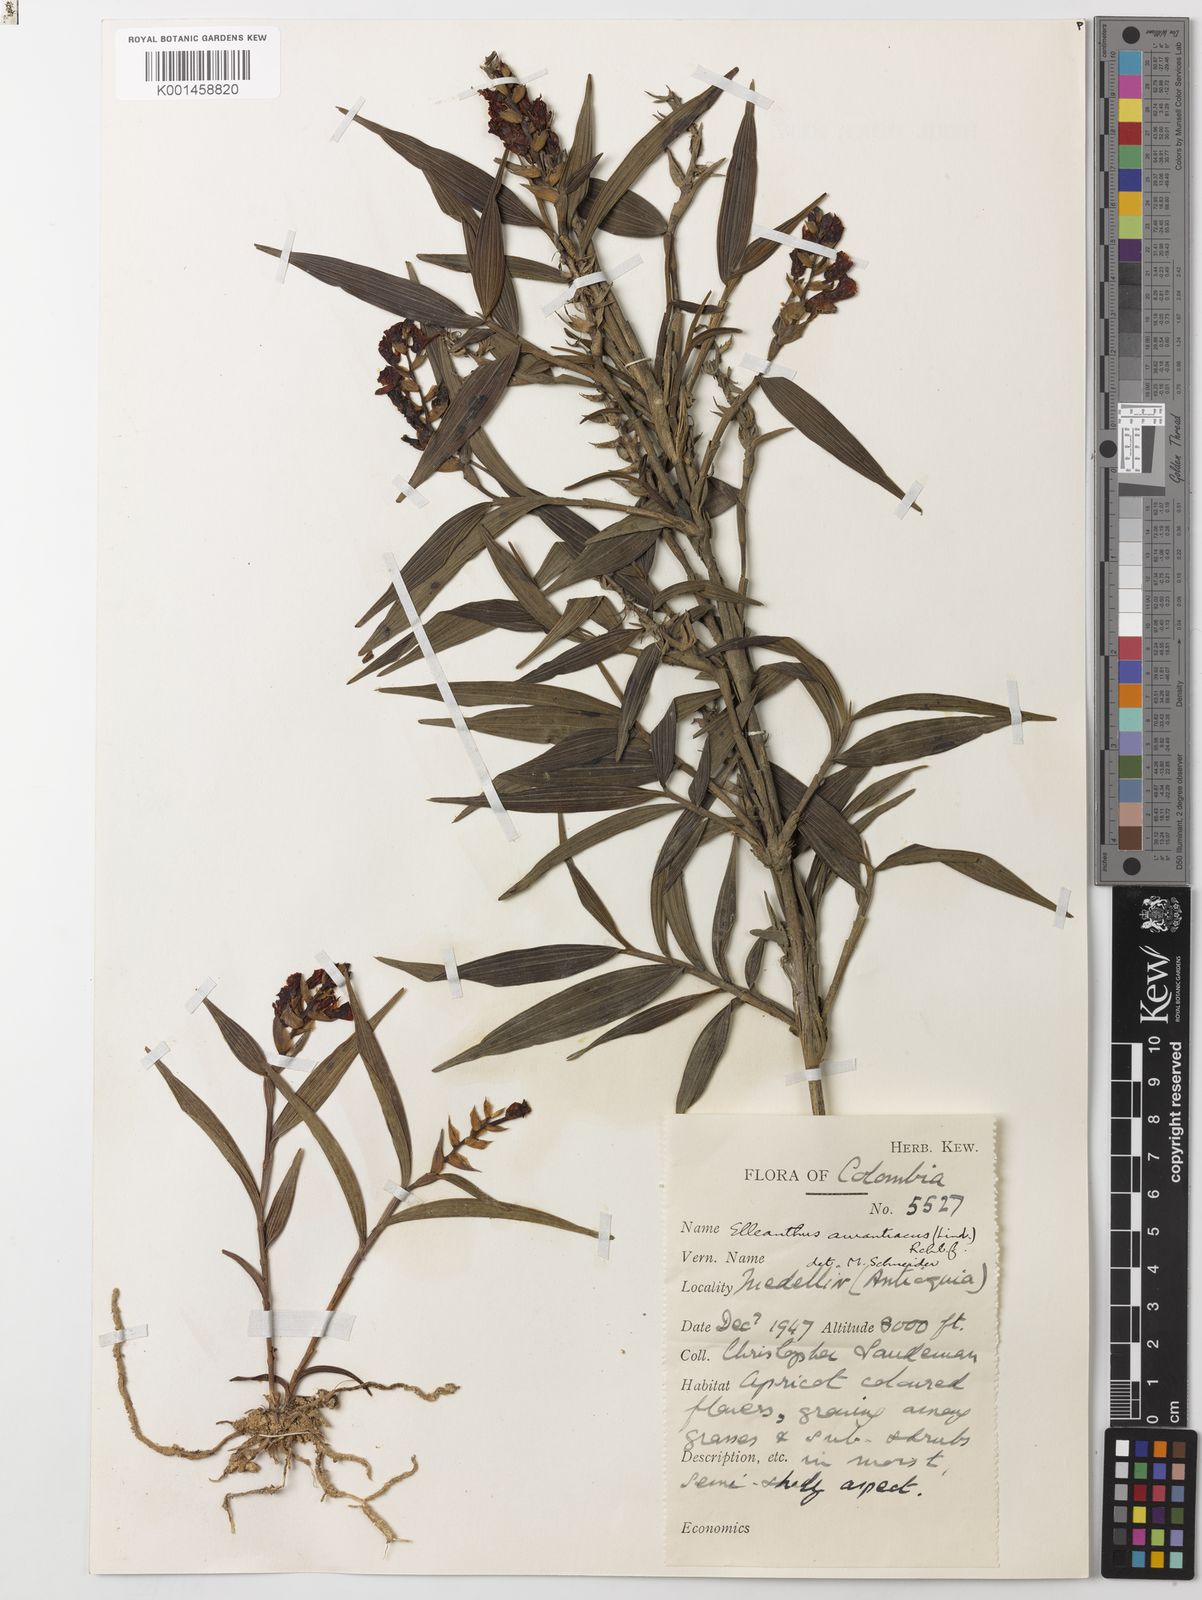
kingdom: Plantae
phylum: Tracheophyta
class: Liliopsida
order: Asparagales
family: Orchidaceae
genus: Elleanthus
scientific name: Elleanthus aurantiacus
